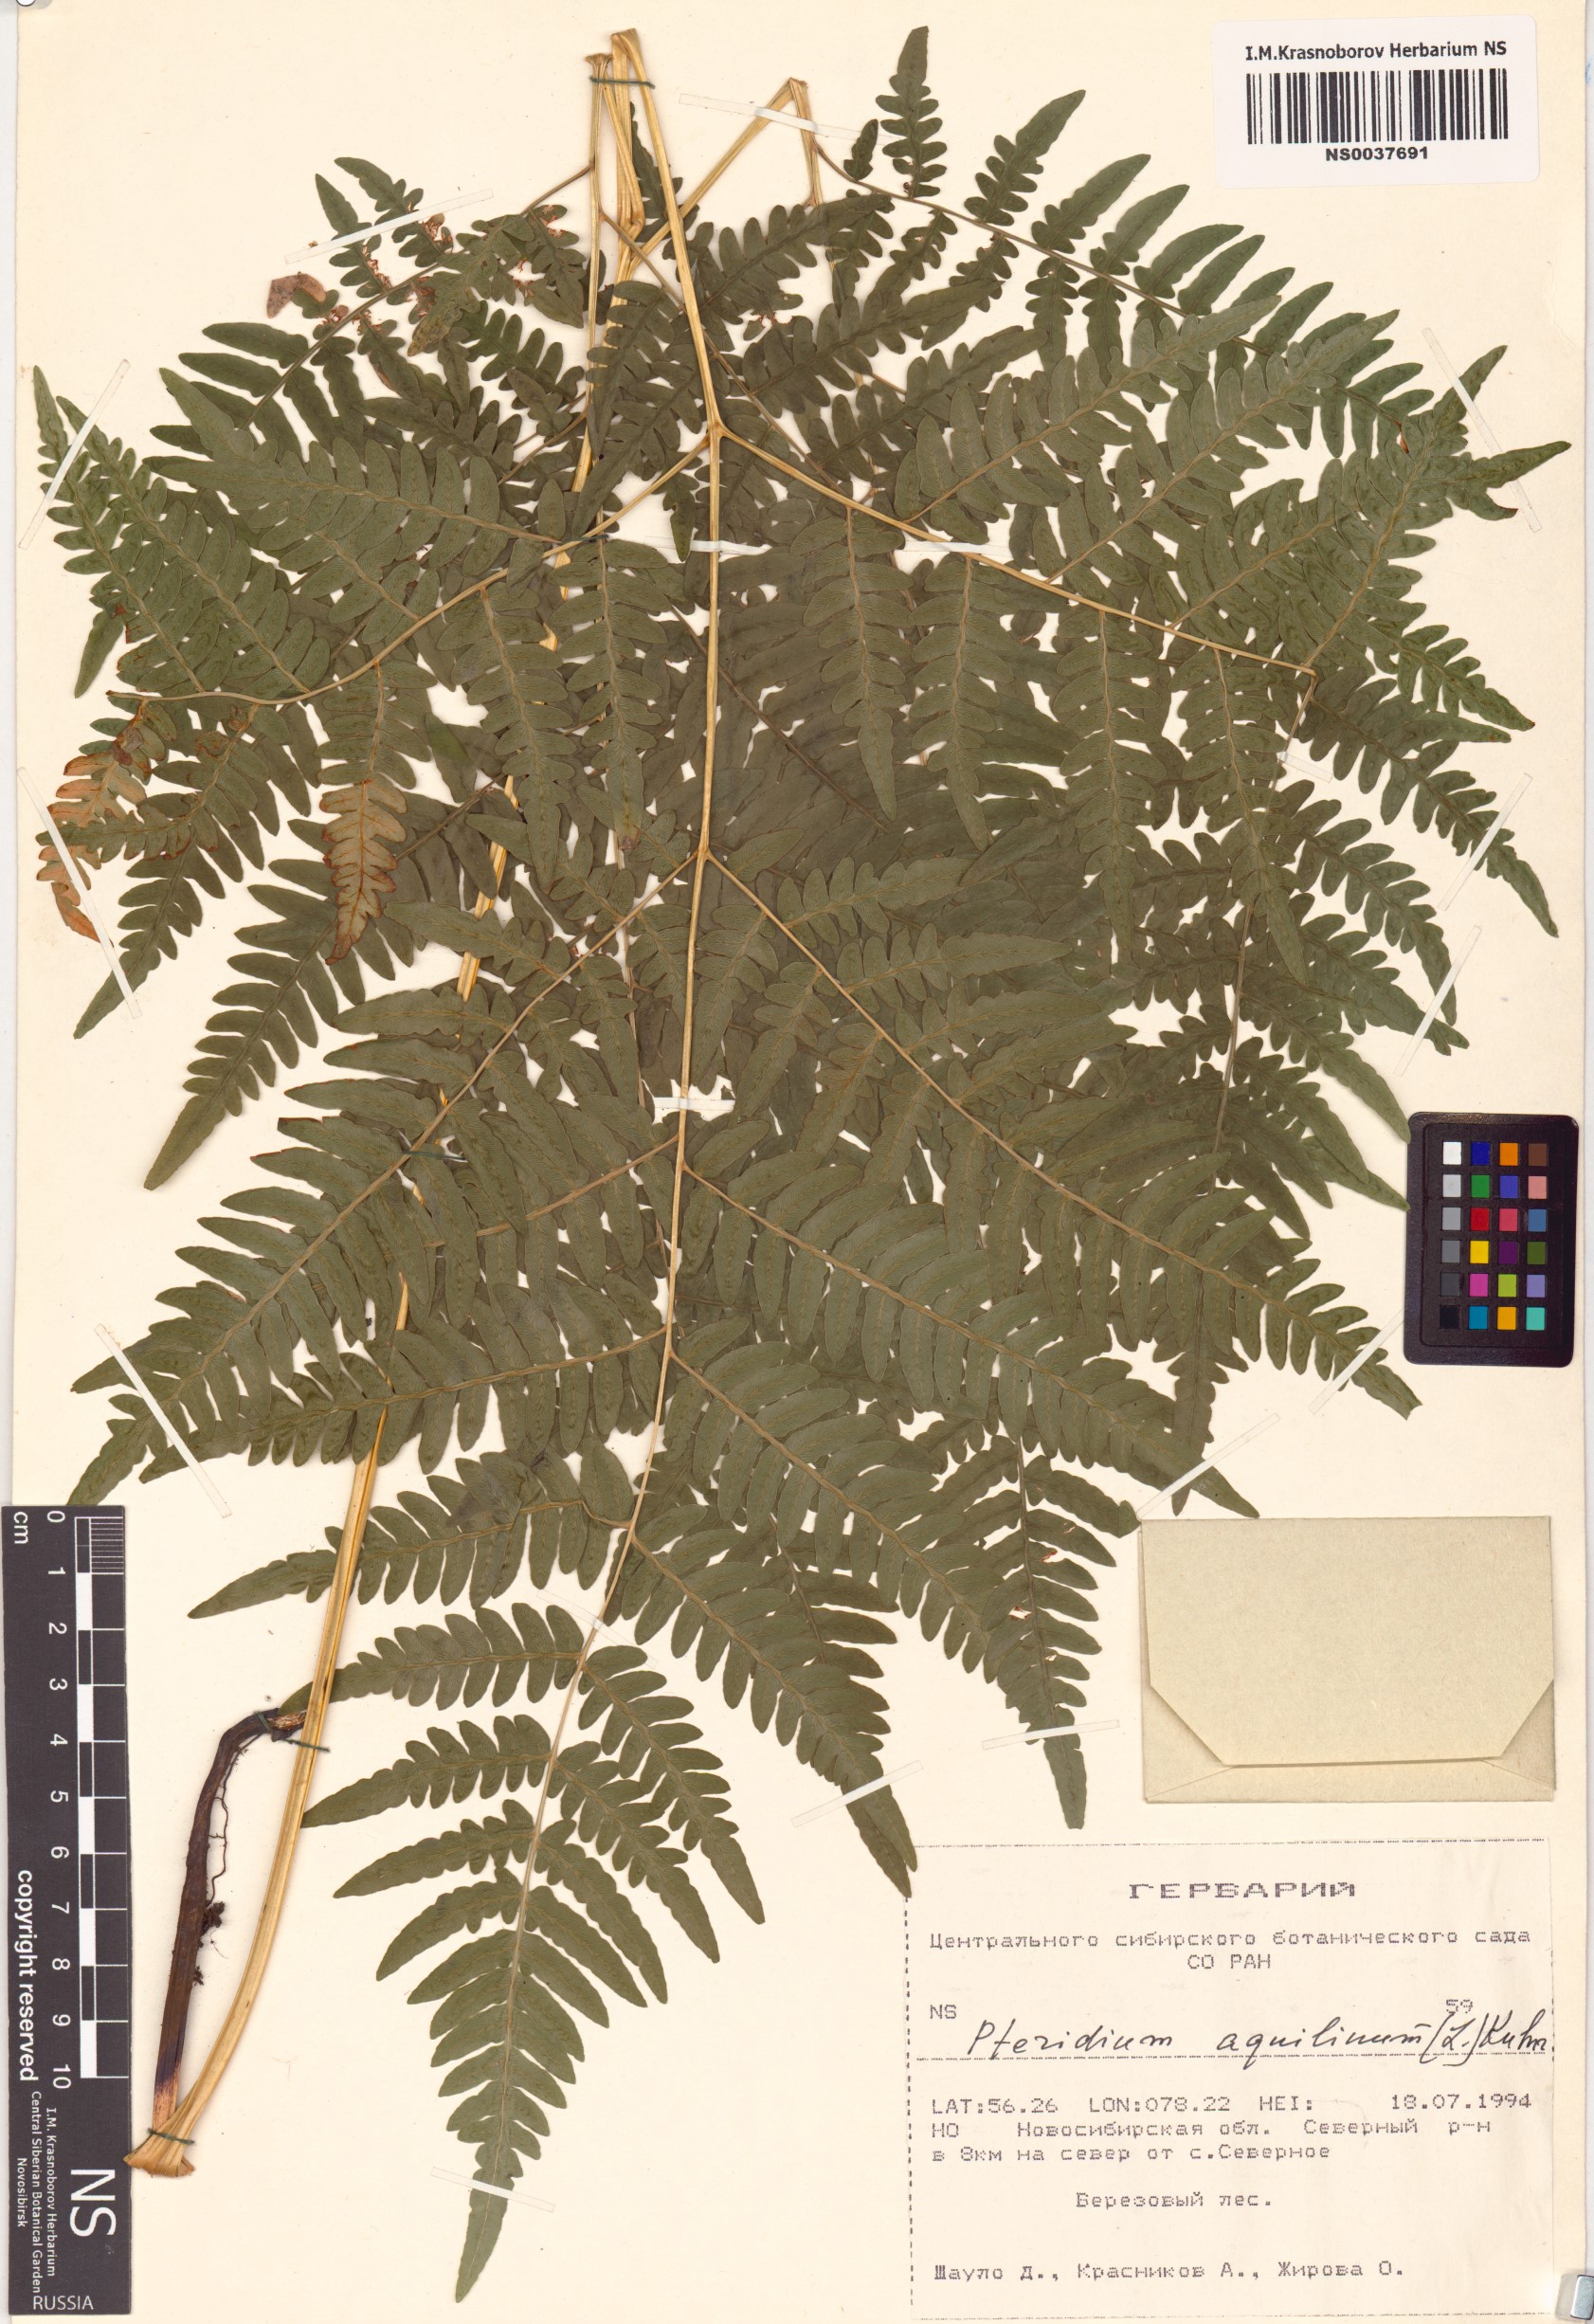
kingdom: Plantae
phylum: Tracheophyta
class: Polypodiopsida
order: Polypodiales
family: Dennstaedtiaceae
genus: Pteridium
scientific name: Pteridium aquilinum
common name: Bracken
